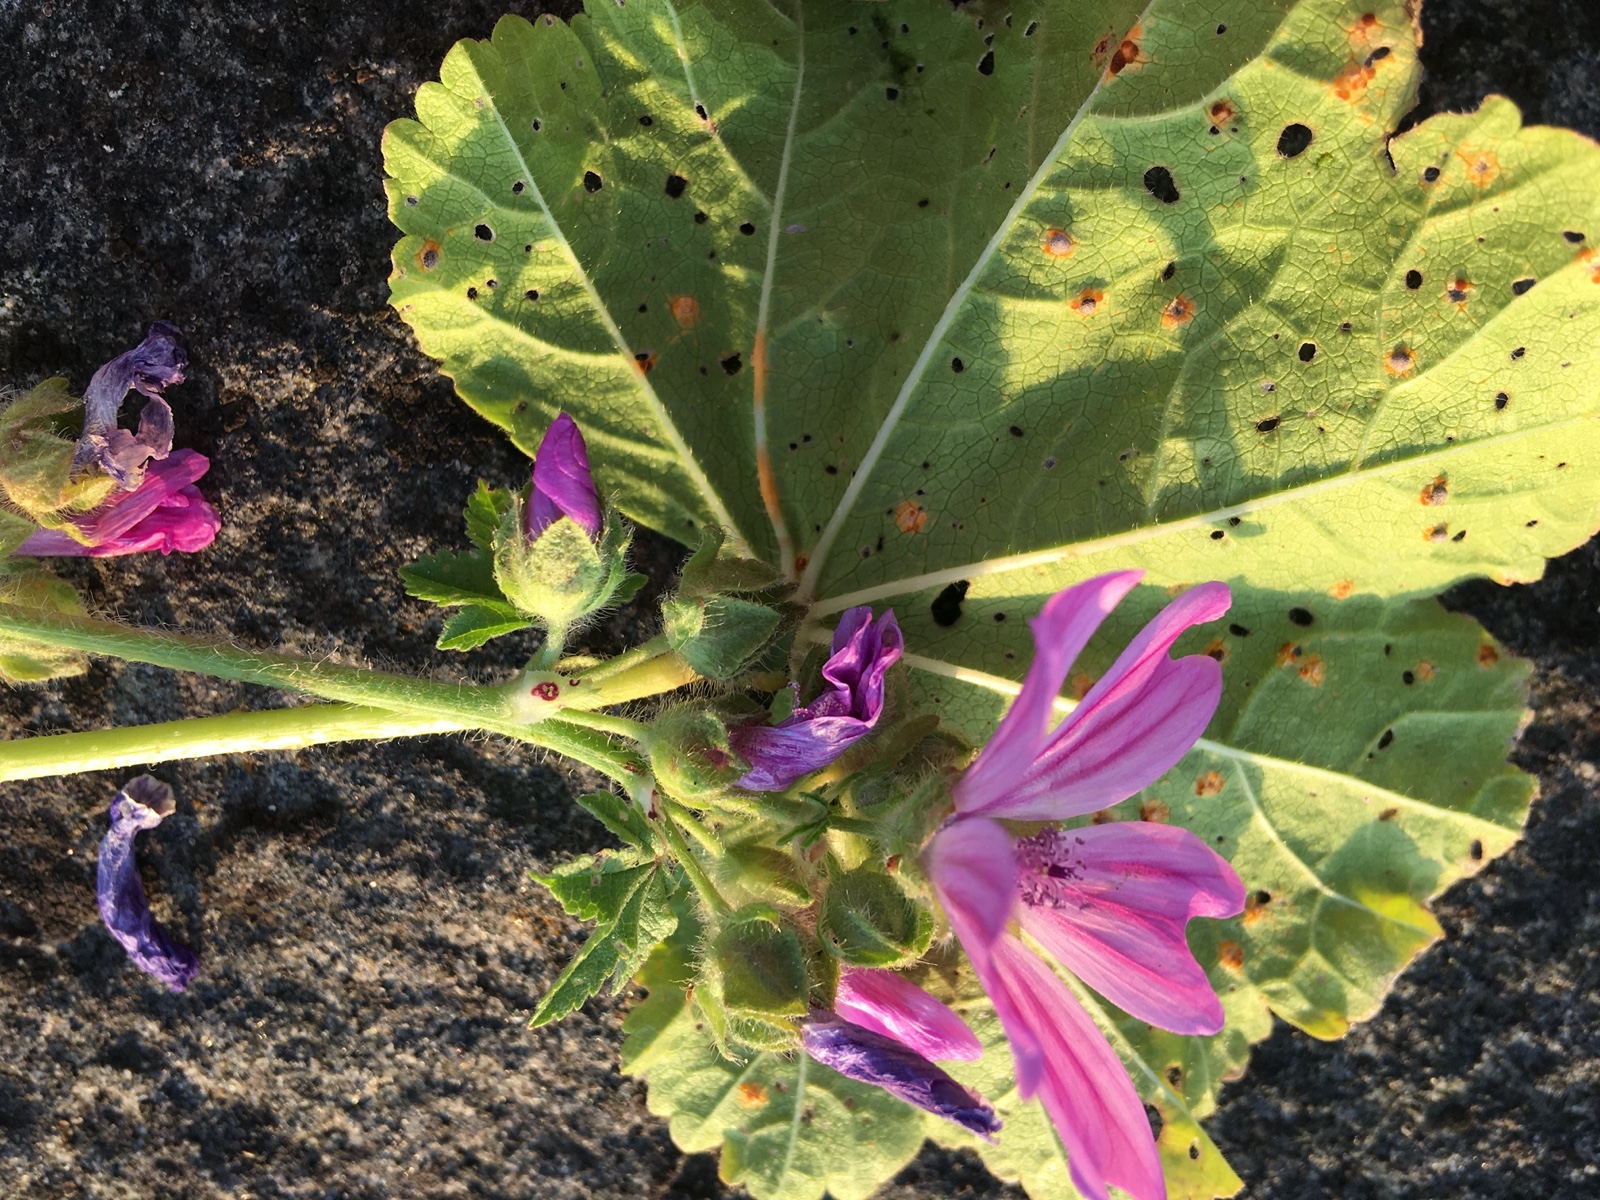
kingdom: Fungi
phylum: Basidiomycota
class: Pucciniomycetes
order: Pucciniales
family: Pucciniaceae
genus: Puccinia
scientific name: Puccinia malvacearum
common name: stokrose-tvecellerust
